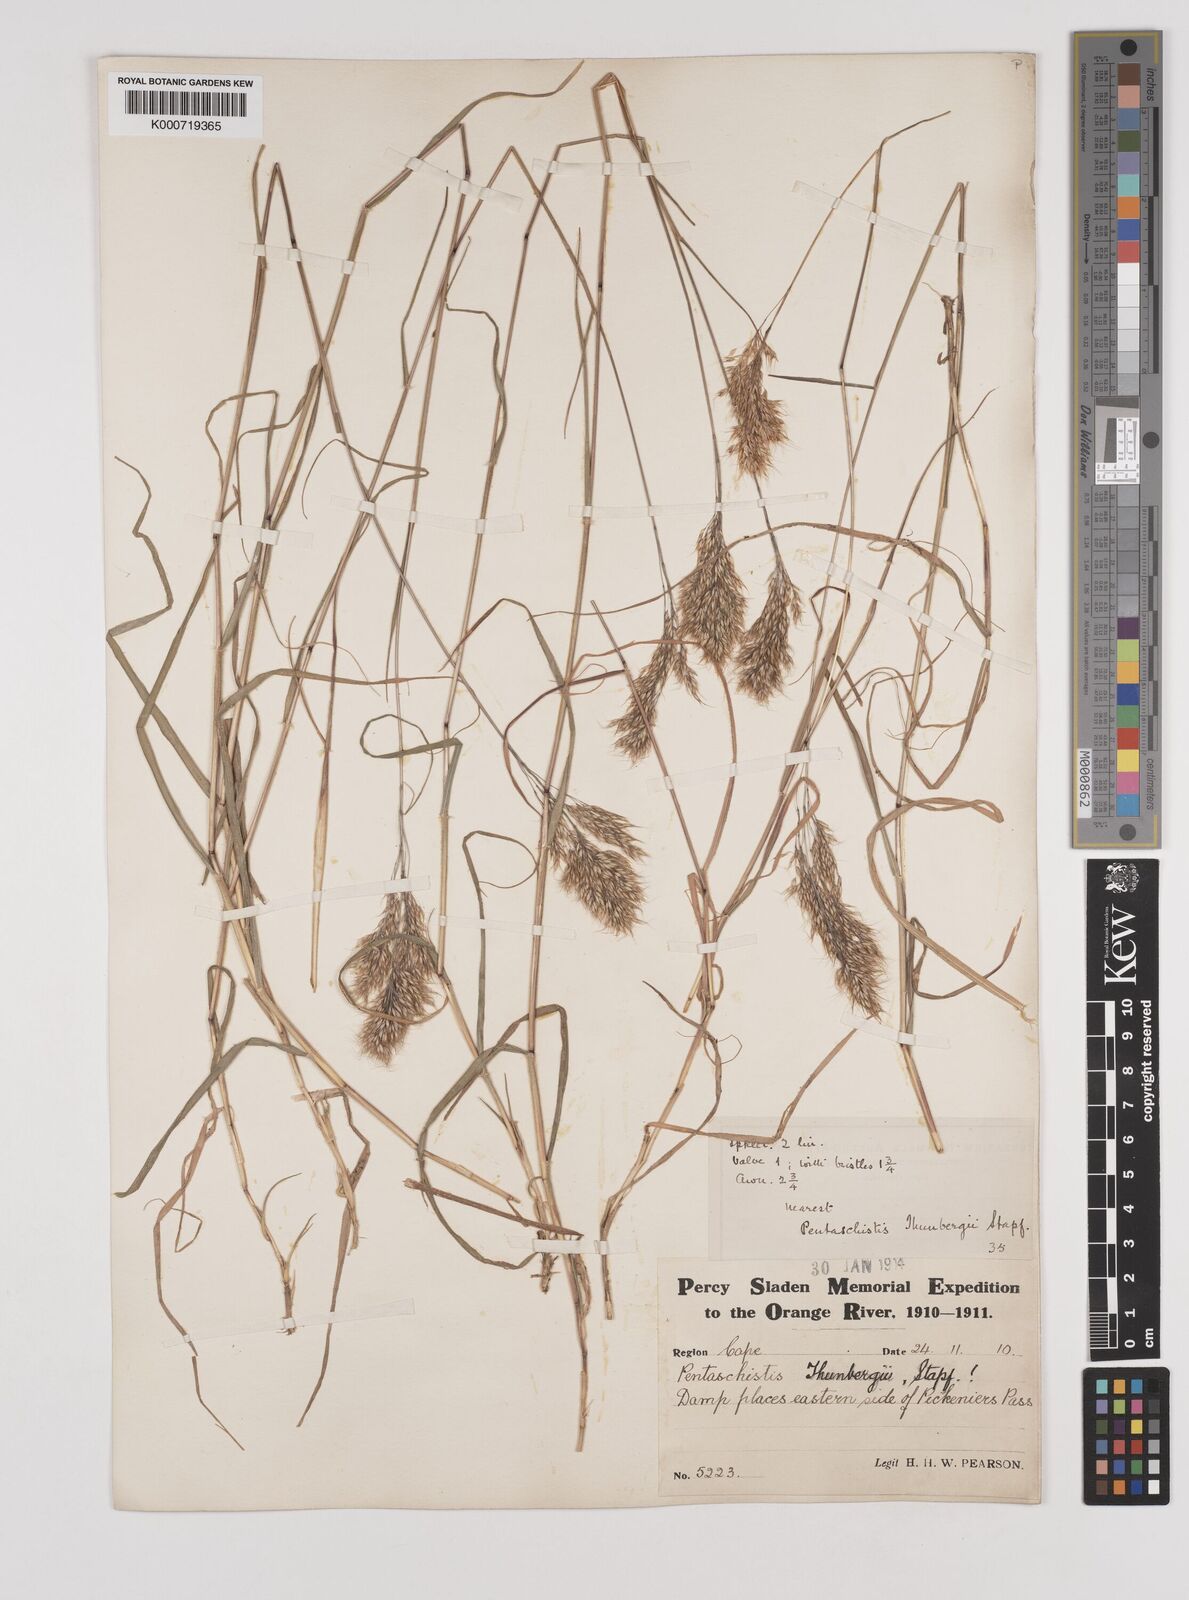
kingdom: Plantae
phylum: Tracheophyta
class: Liliopsida
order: Poales
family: Poaceae
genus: Pentameris
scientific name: Pentameris triseta
